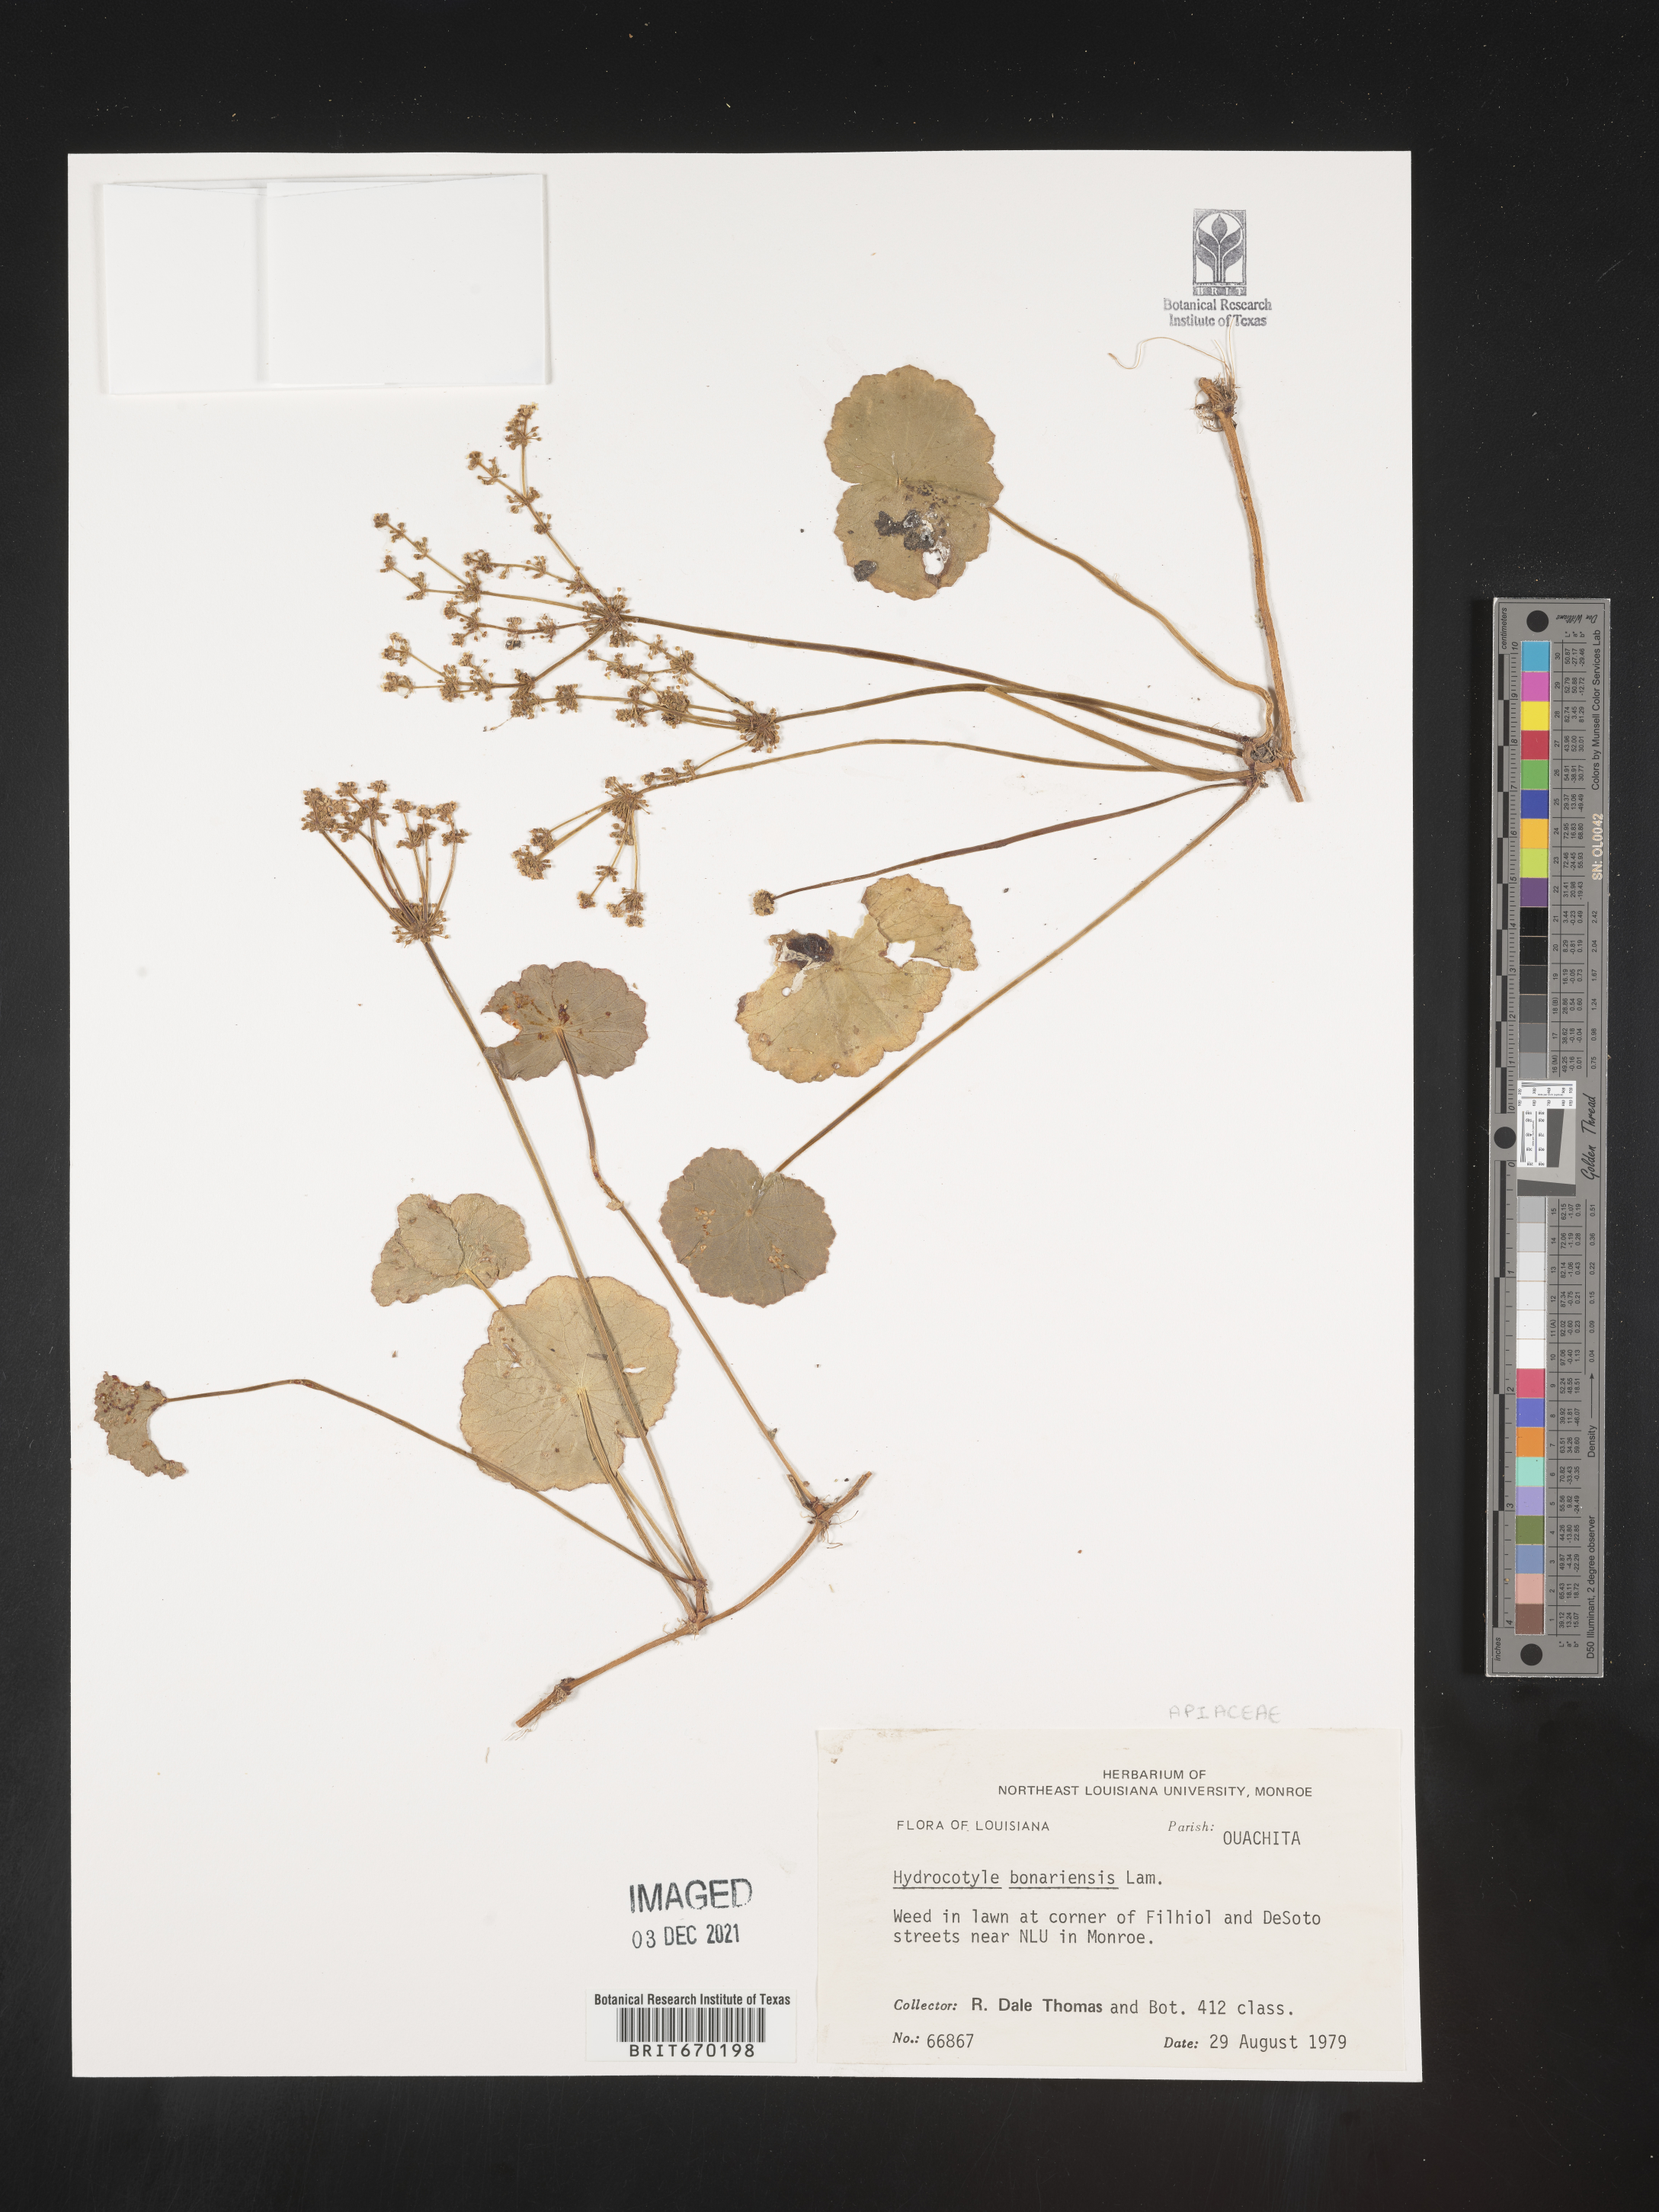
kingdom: Plantae
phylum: Tracheophyta
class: Magnoliopsida
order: Apiales
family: Araliaceae
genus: Hydrocotyle
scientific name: Hydrocotyle bonariensis
